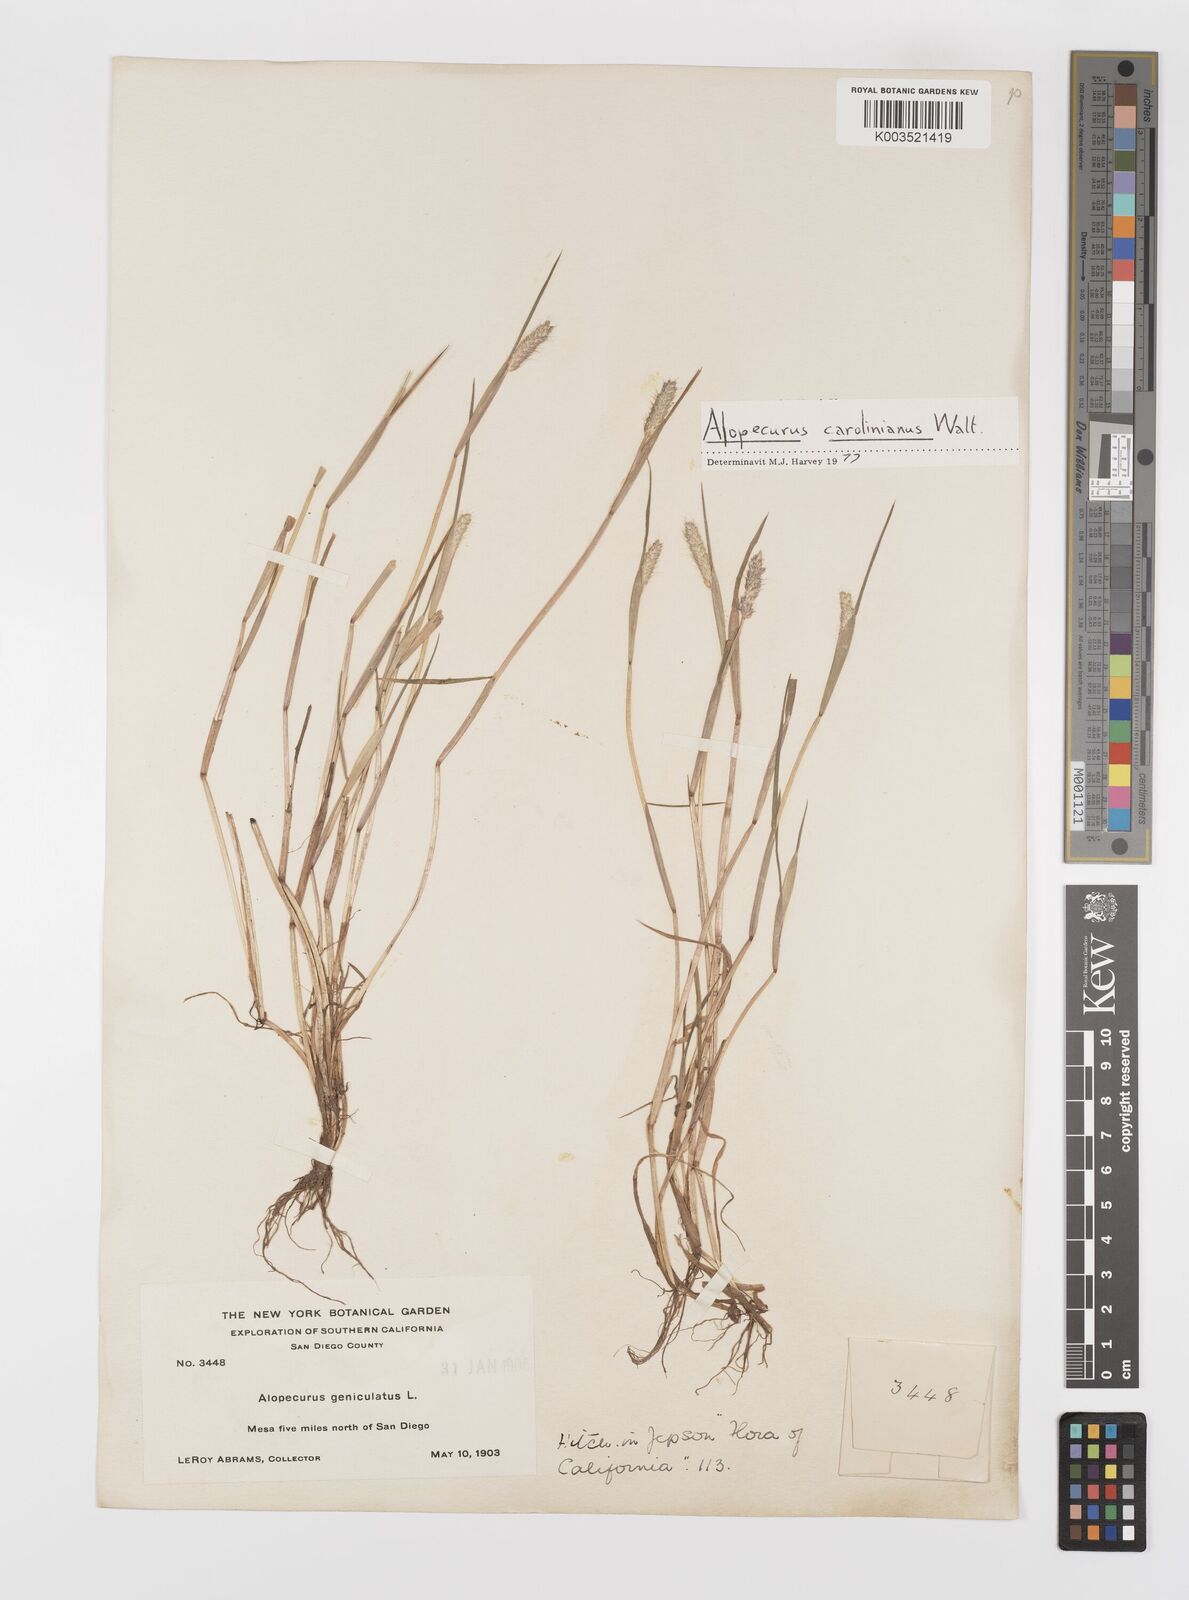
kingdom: Plantae
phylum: Tracheophyta
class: Liliopsida
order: Poales
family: Poaceae
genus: Alopecurus
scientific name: Alopecurus carolinianus
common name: Tufted foxtail
